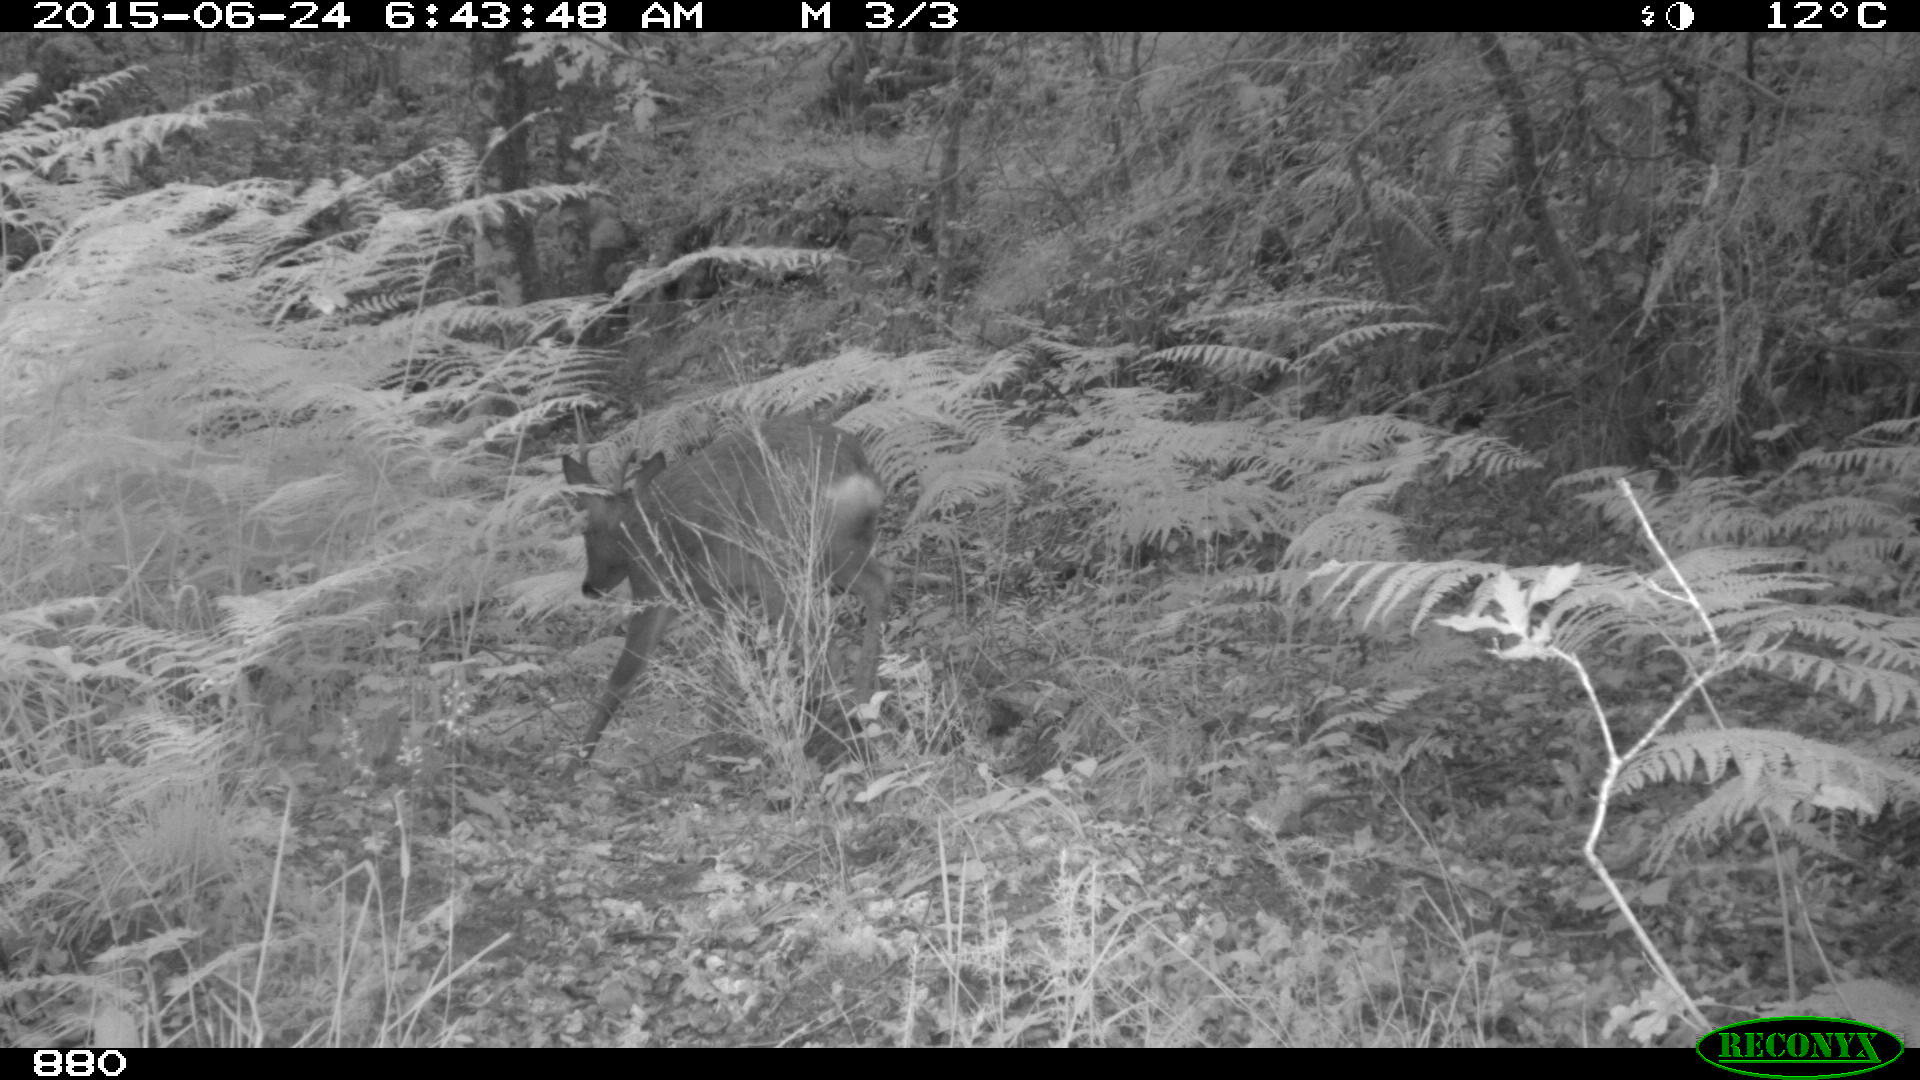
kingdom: Animalia
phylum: Chordata
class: Mammalia
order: Artiodactyla
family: Cervidae
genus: Capreolus
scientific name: Capreolus capreolus
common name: Western roe deer
